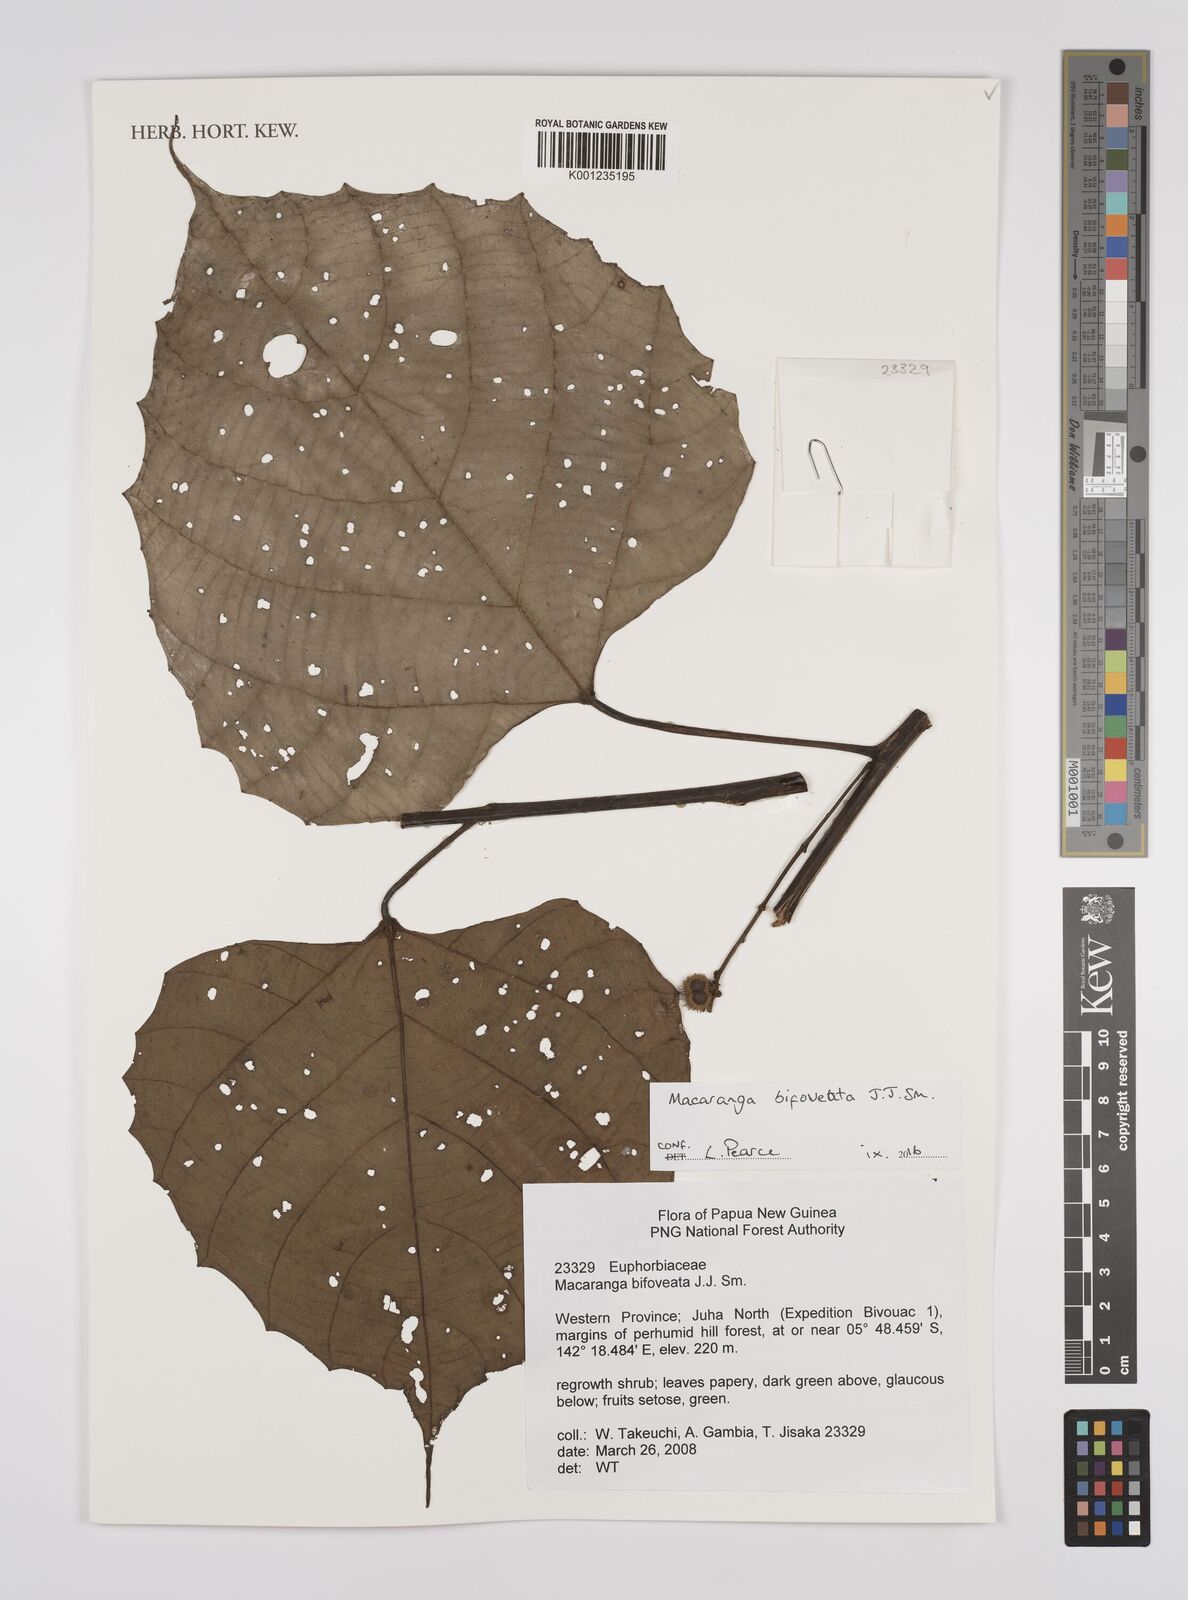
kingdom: Plantae
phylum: Tracheophyta
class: Magnoliopsida
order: Malpighiales
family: Euphorbiaceae
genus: Macaranga
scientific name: Macaranga
